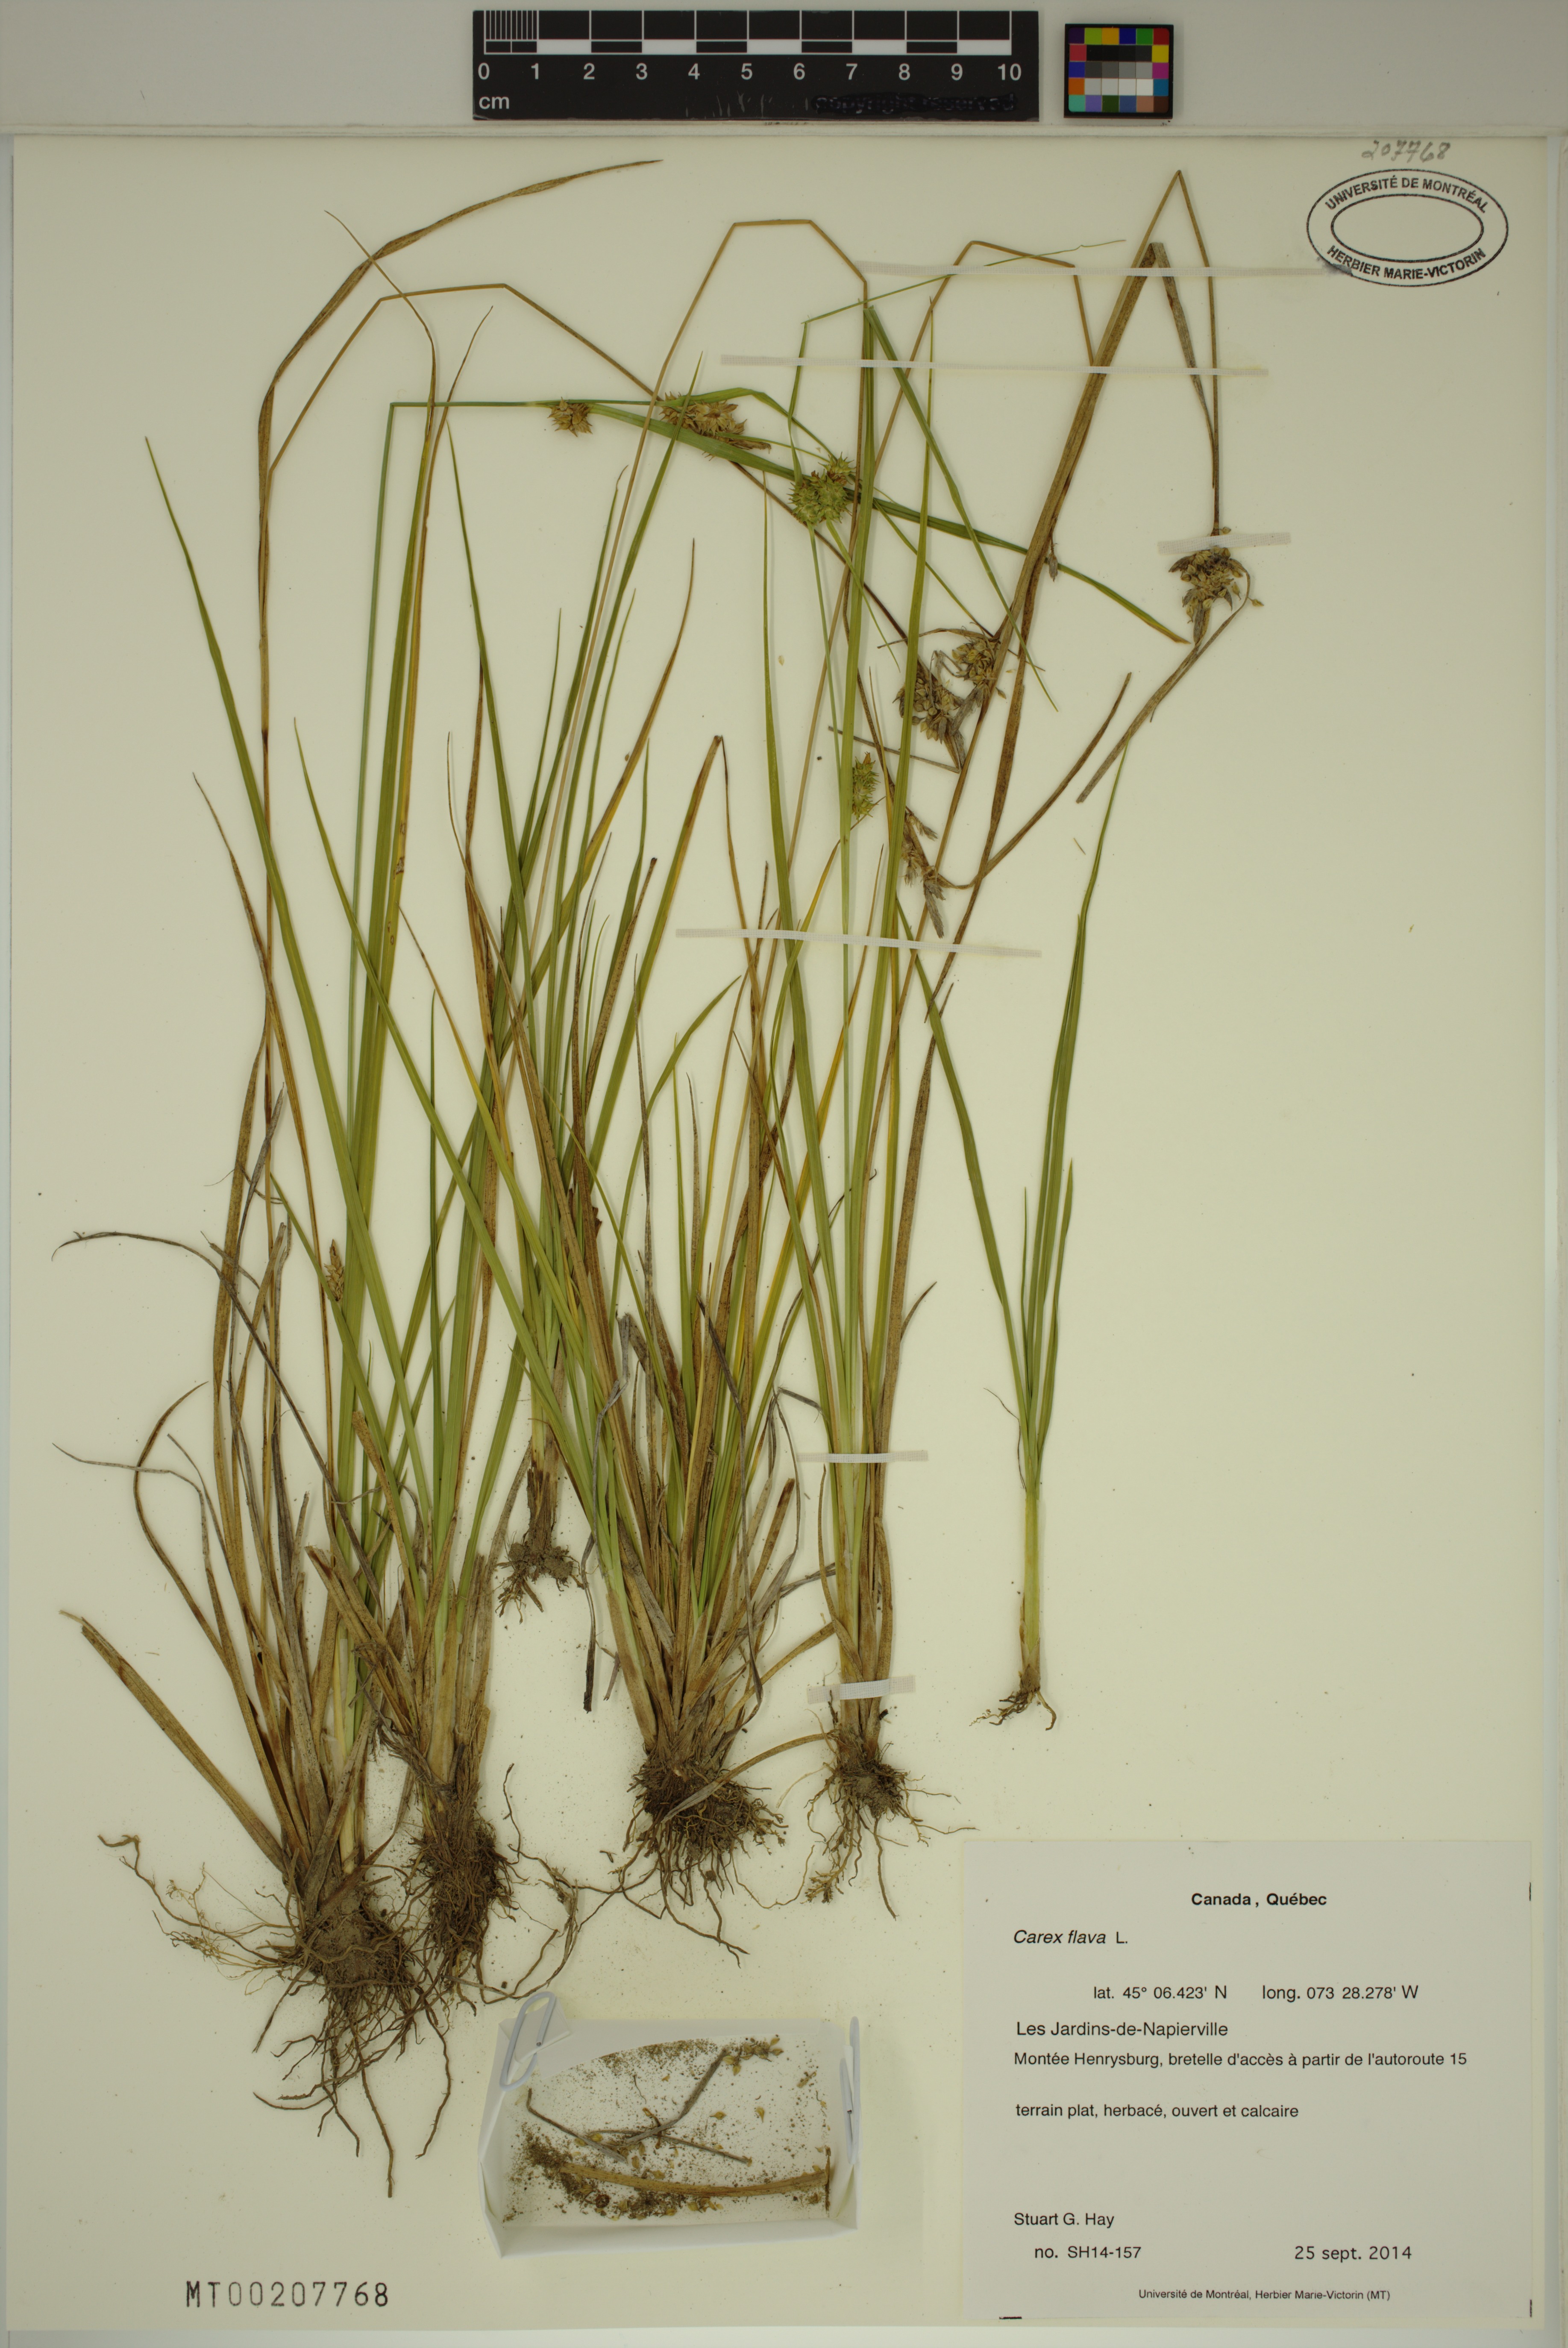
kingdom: Plantae
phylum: Tracheophyta
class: Liliopsida
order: Poales
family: Cyperaceae
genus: Carex
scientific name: Carex flava
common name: Large yellow-sedge
